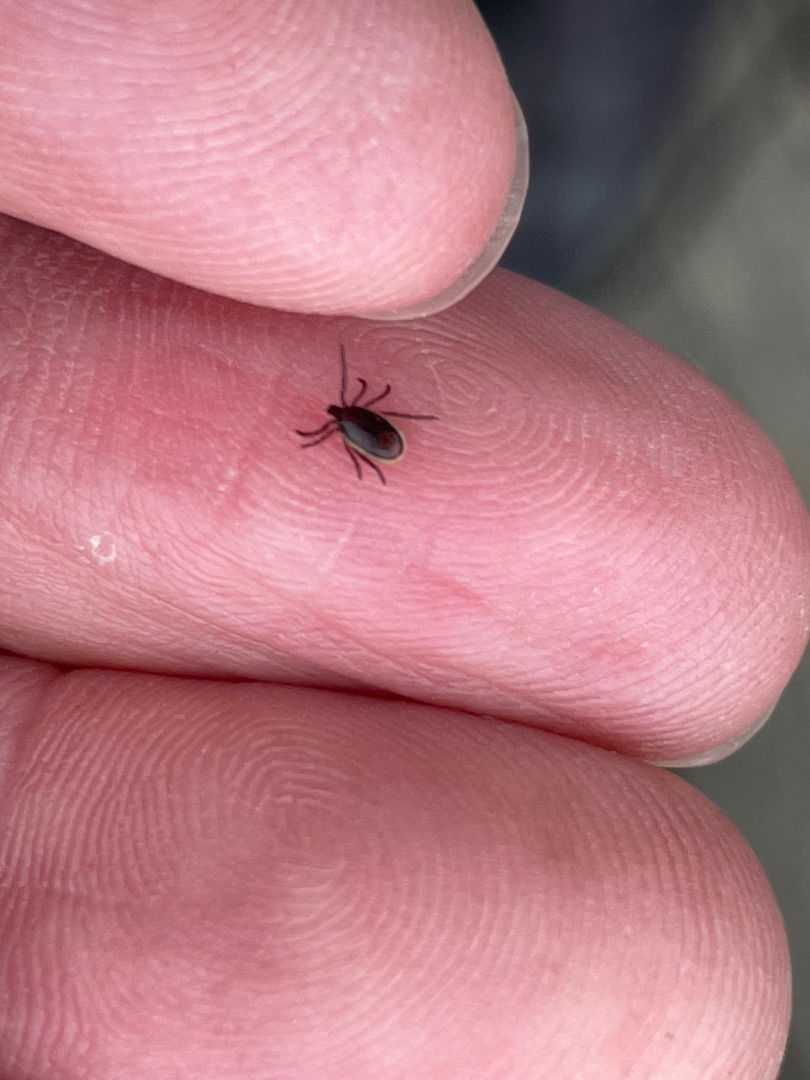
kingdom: Animalia
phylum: Arthropoda
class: Arachnida
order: Ixodida
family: Ixodidae
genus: Ixodes
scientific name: Ixodes ricinus
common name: Skovflåt
